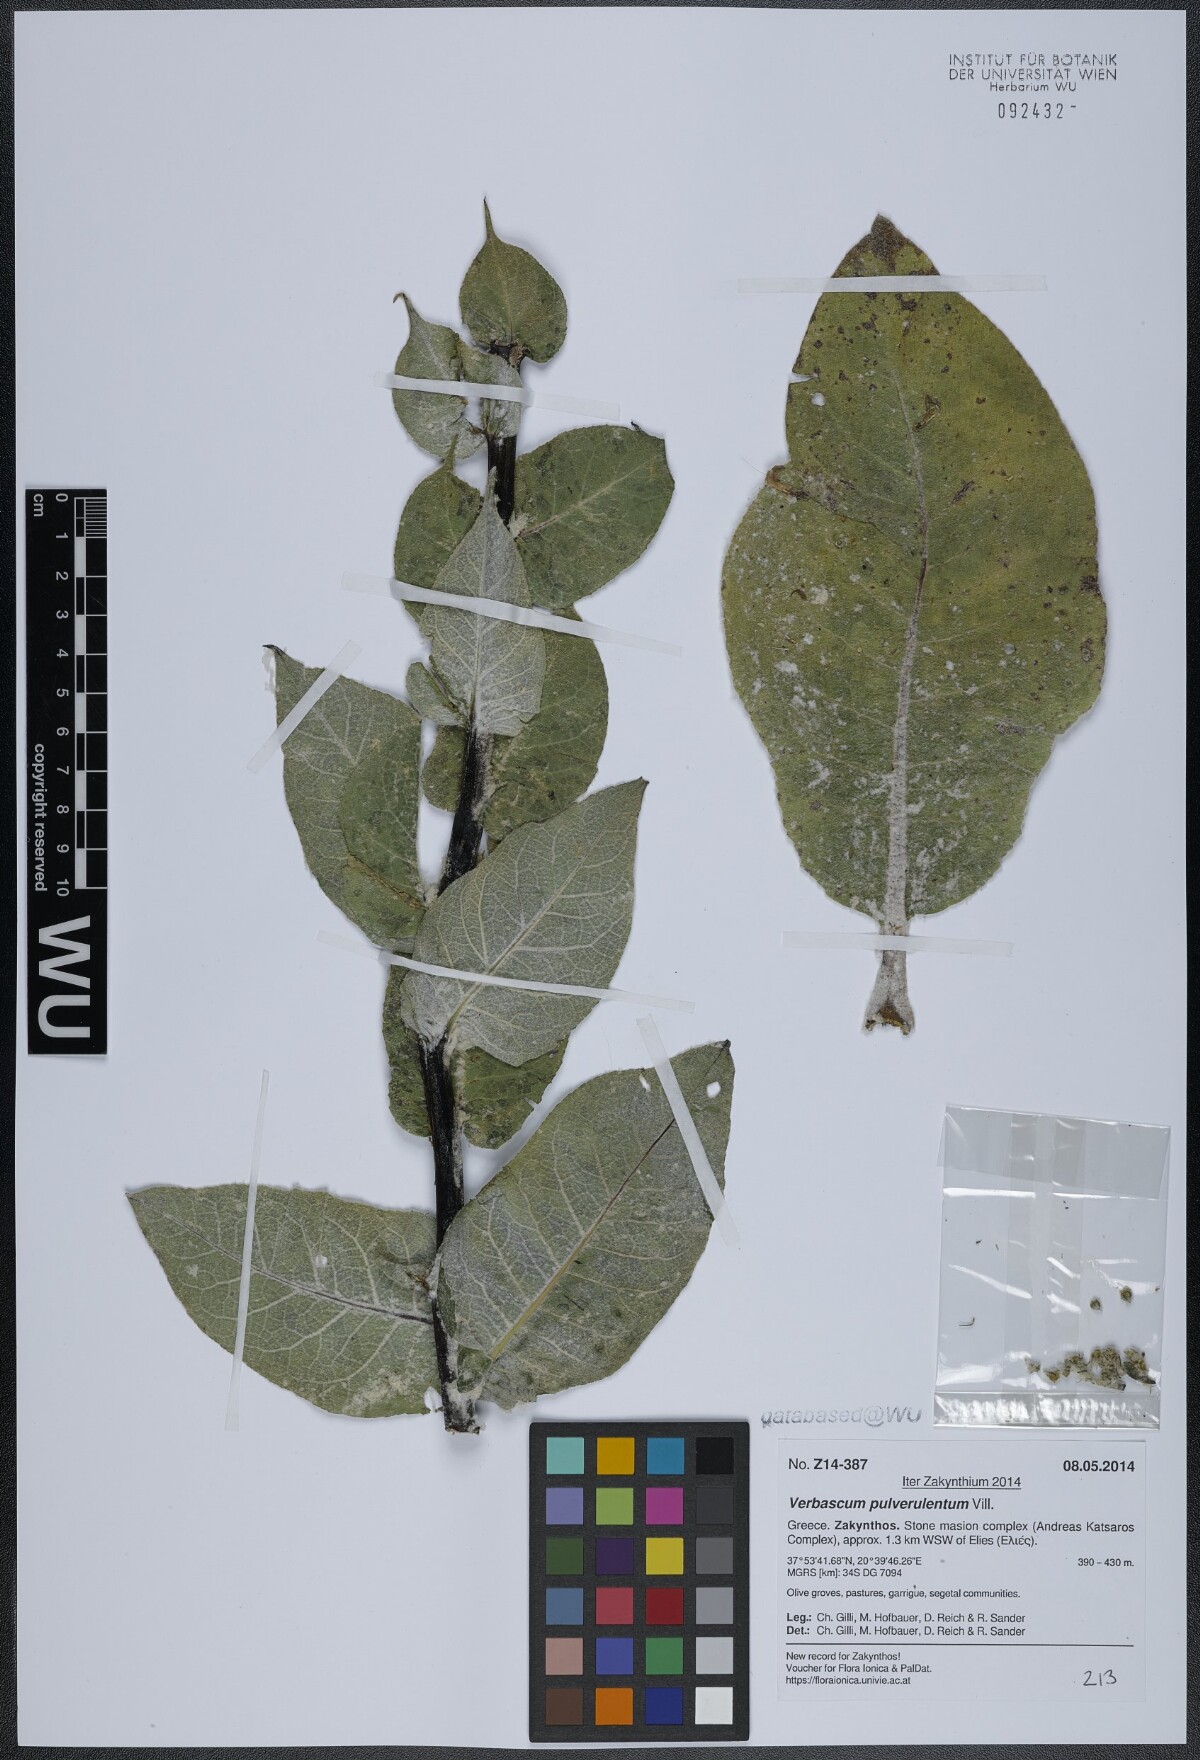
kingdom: Plantae
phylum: Tracheophyta
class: Magnoliopsida
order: Lamiales
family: Scrophulariaceae
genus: Verbascum
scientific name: Verbascum pulverulentum
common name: Broad-leaf mullein
